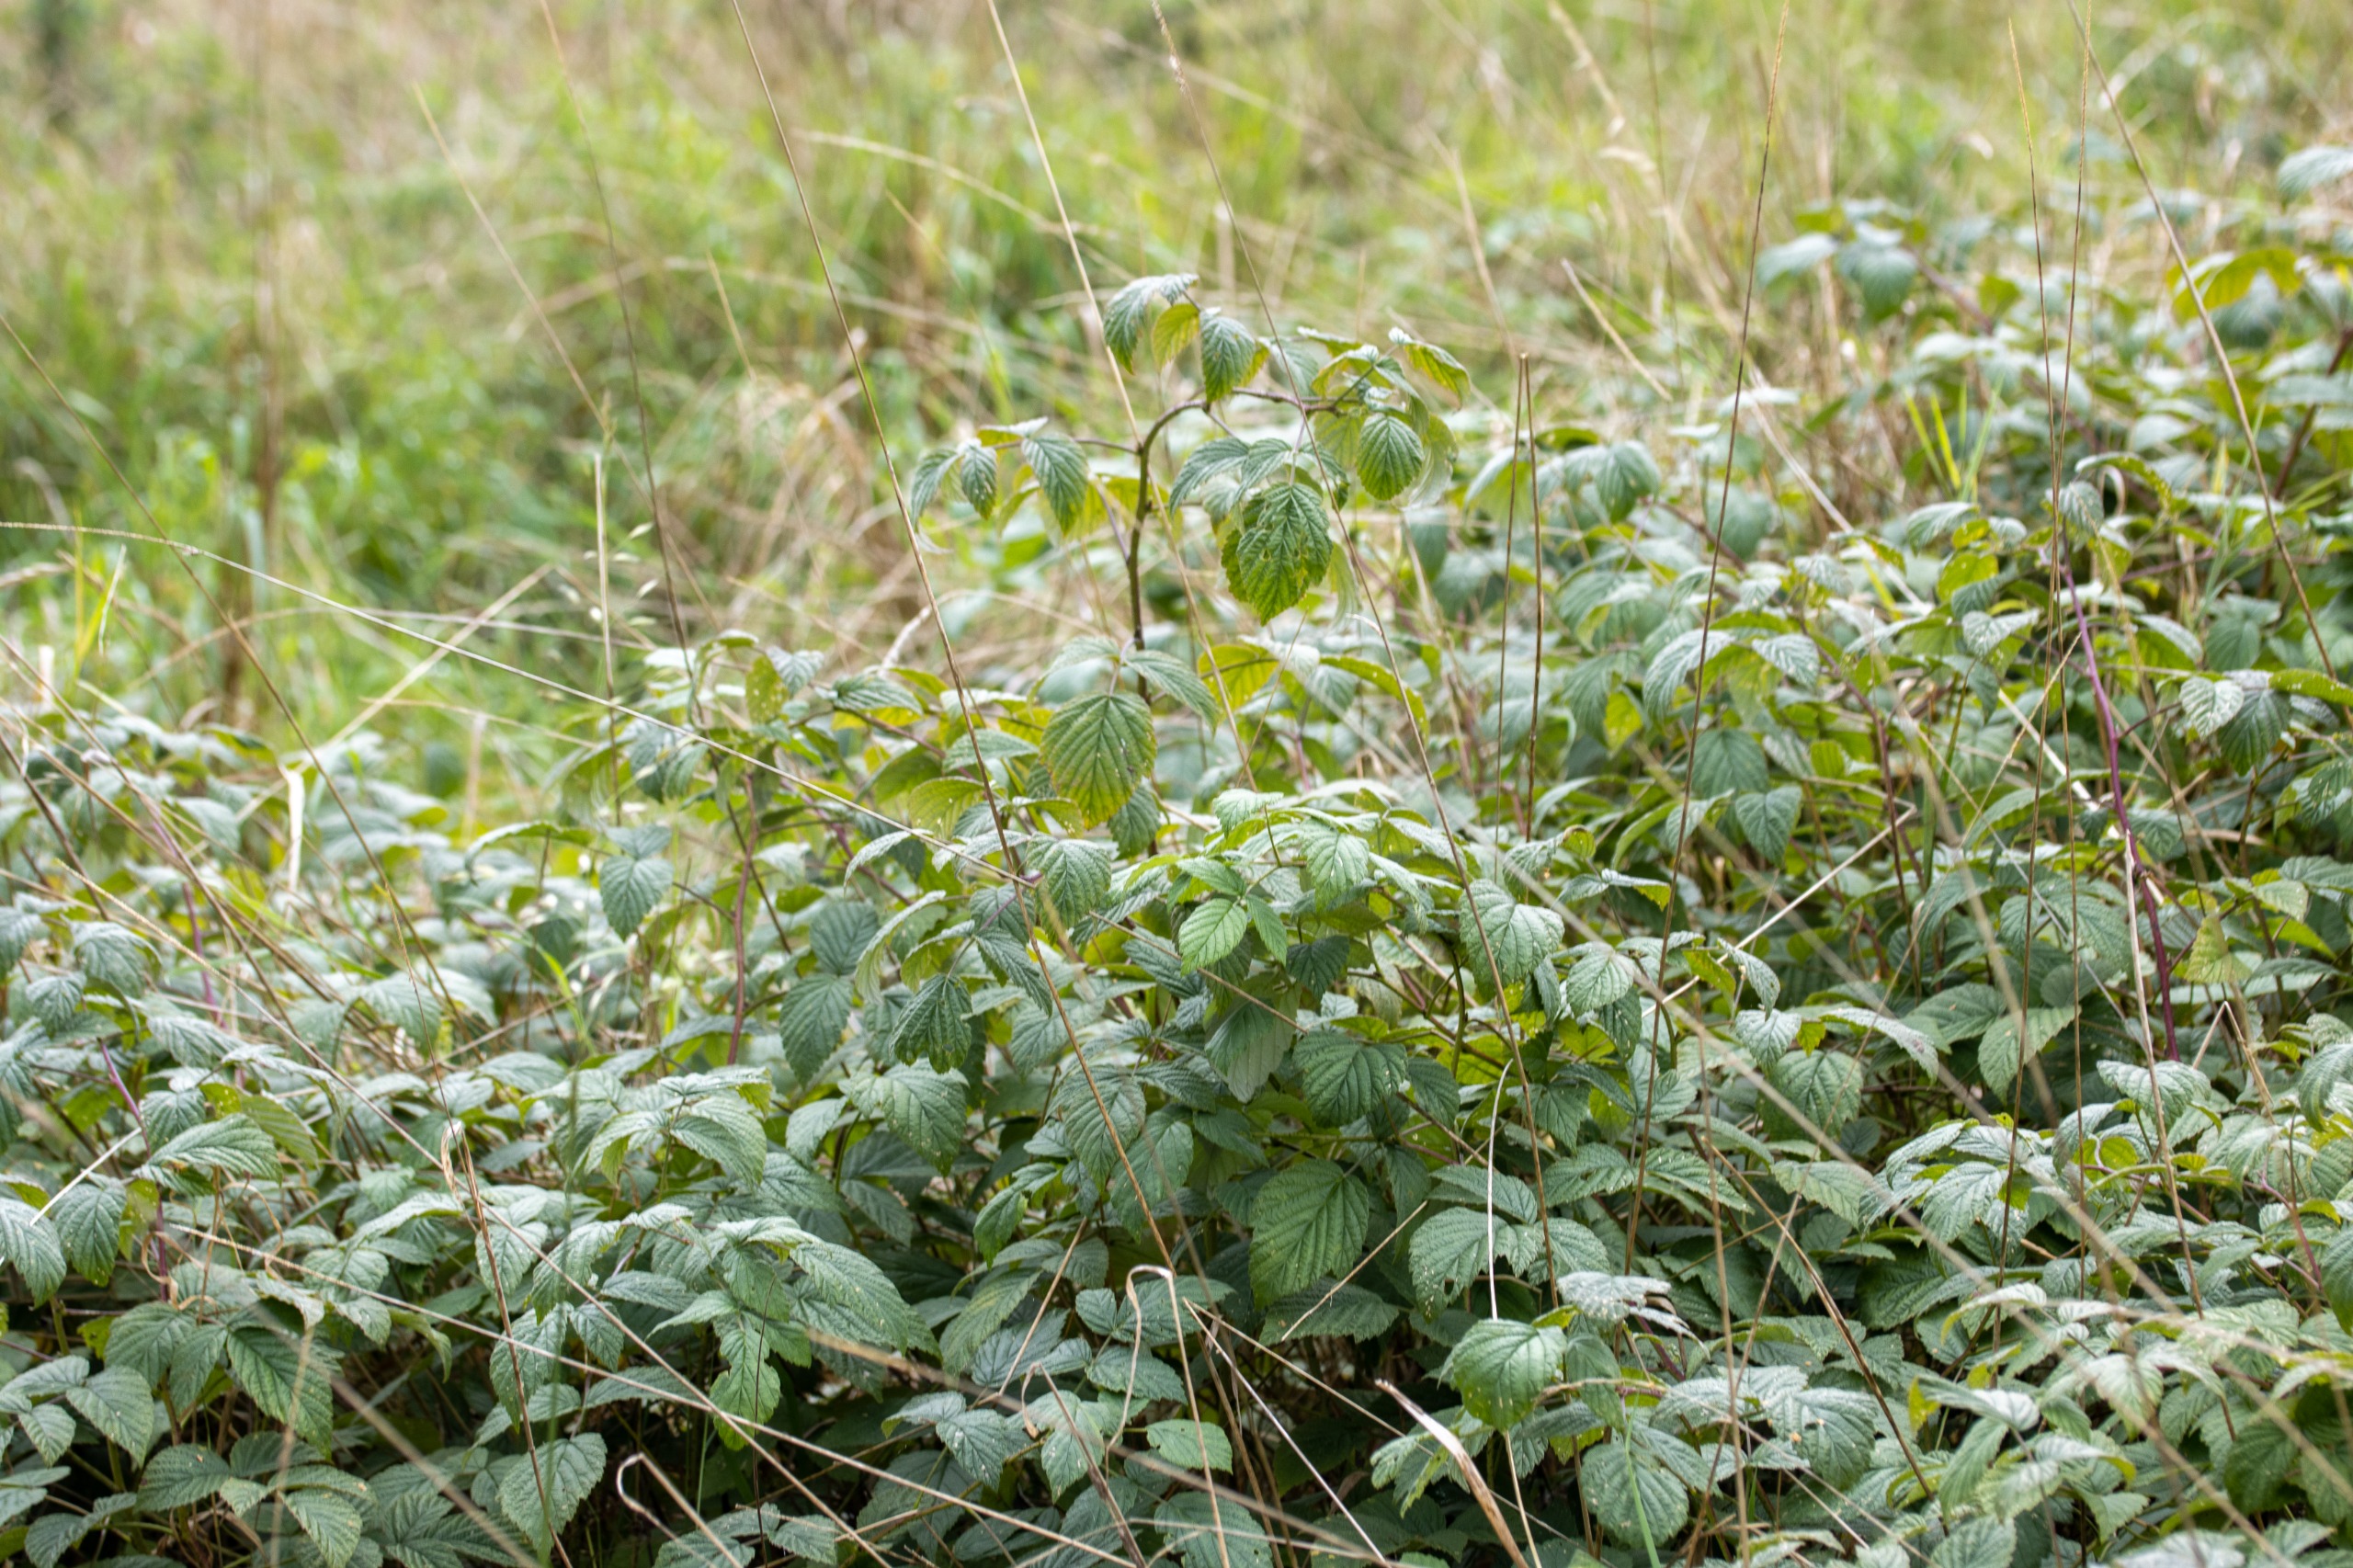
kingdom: Plantae
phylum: Tracheophyta
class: Magnoliopsida
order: Rosales
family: Rosaceae
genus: Rubus
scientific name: Rubus idaeus
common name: Hindbær
